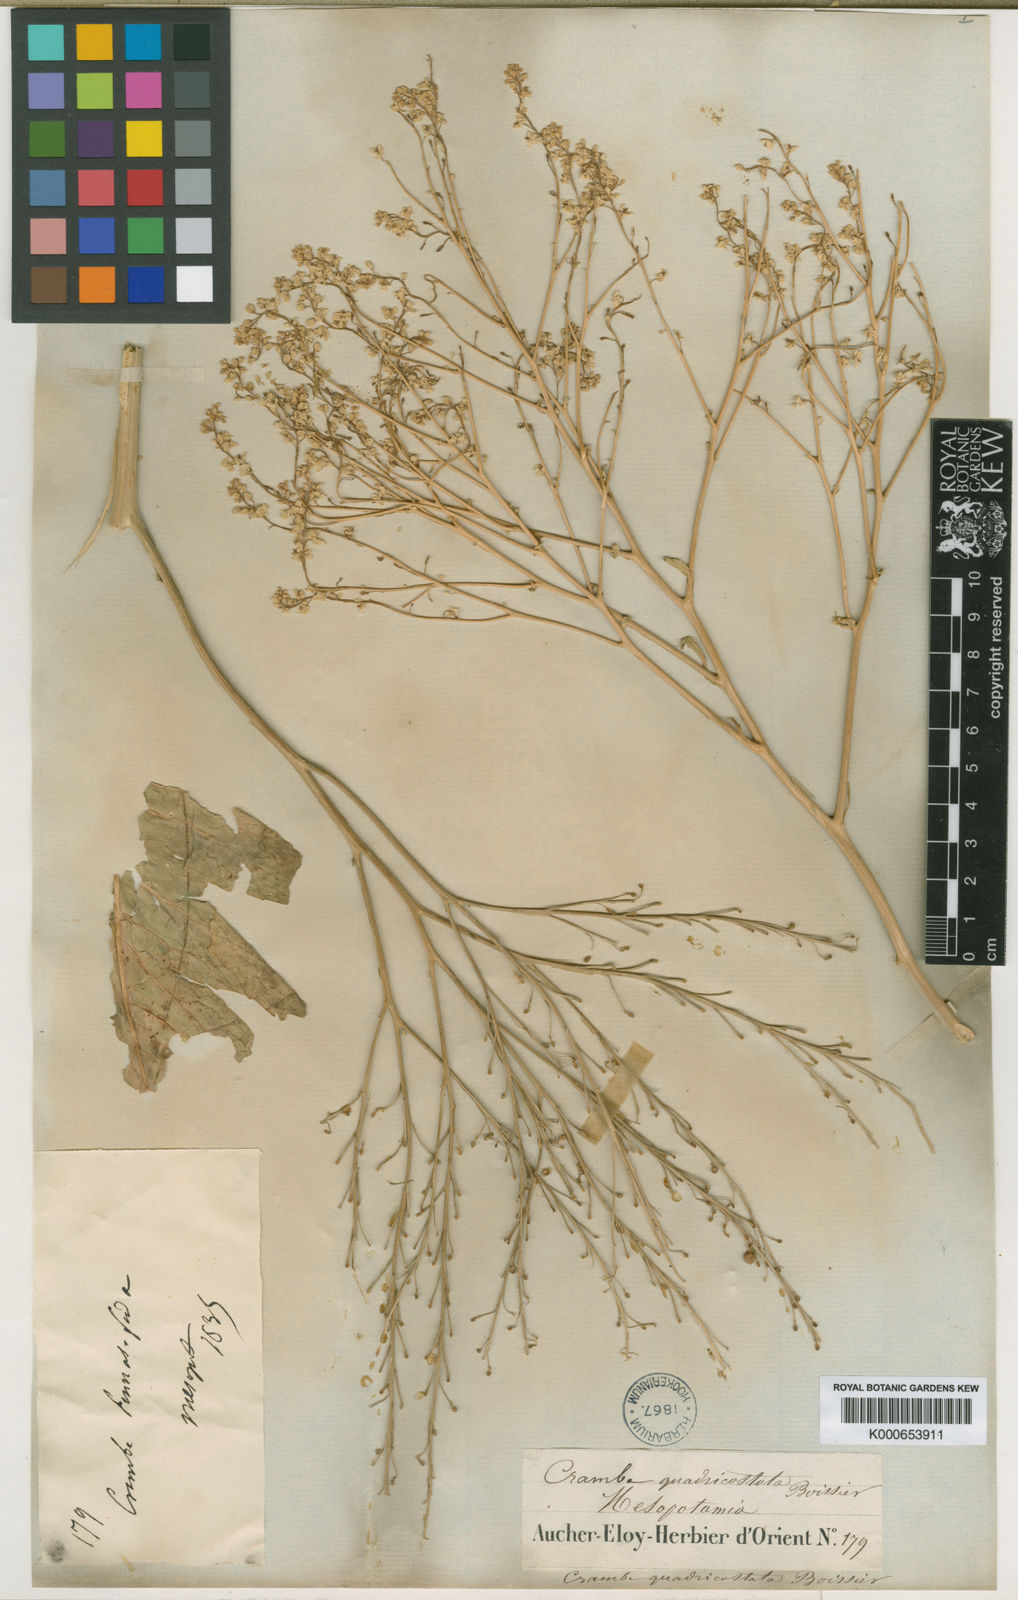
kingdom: Plantae
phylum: Tracheophyta
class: Magnoliopsida
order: Brassicales
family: Brassicaceae
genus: Crambe
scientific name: Crambe orientalis
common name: Oriental sea-kale
